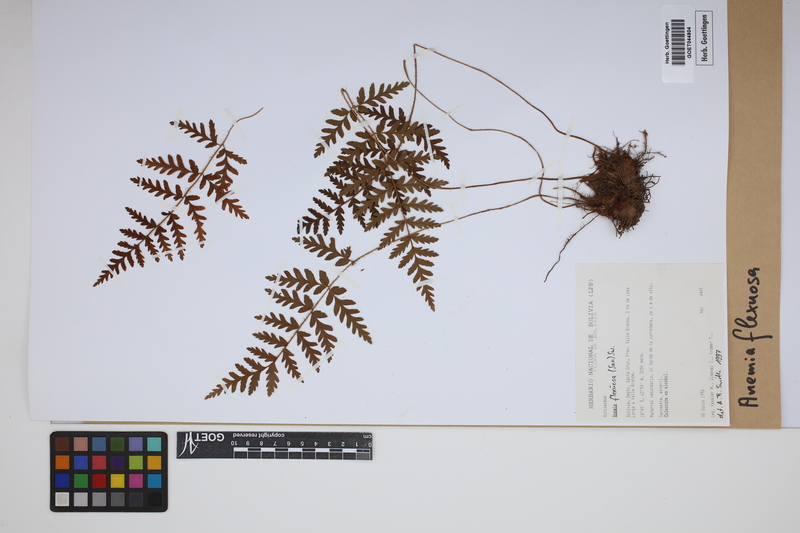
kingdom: Plantae
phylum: Tracheophyta
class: Polypodiopsida
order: Schizaeales
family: Anemiaceae
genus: Anemia
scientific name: Anemia flexuosa
